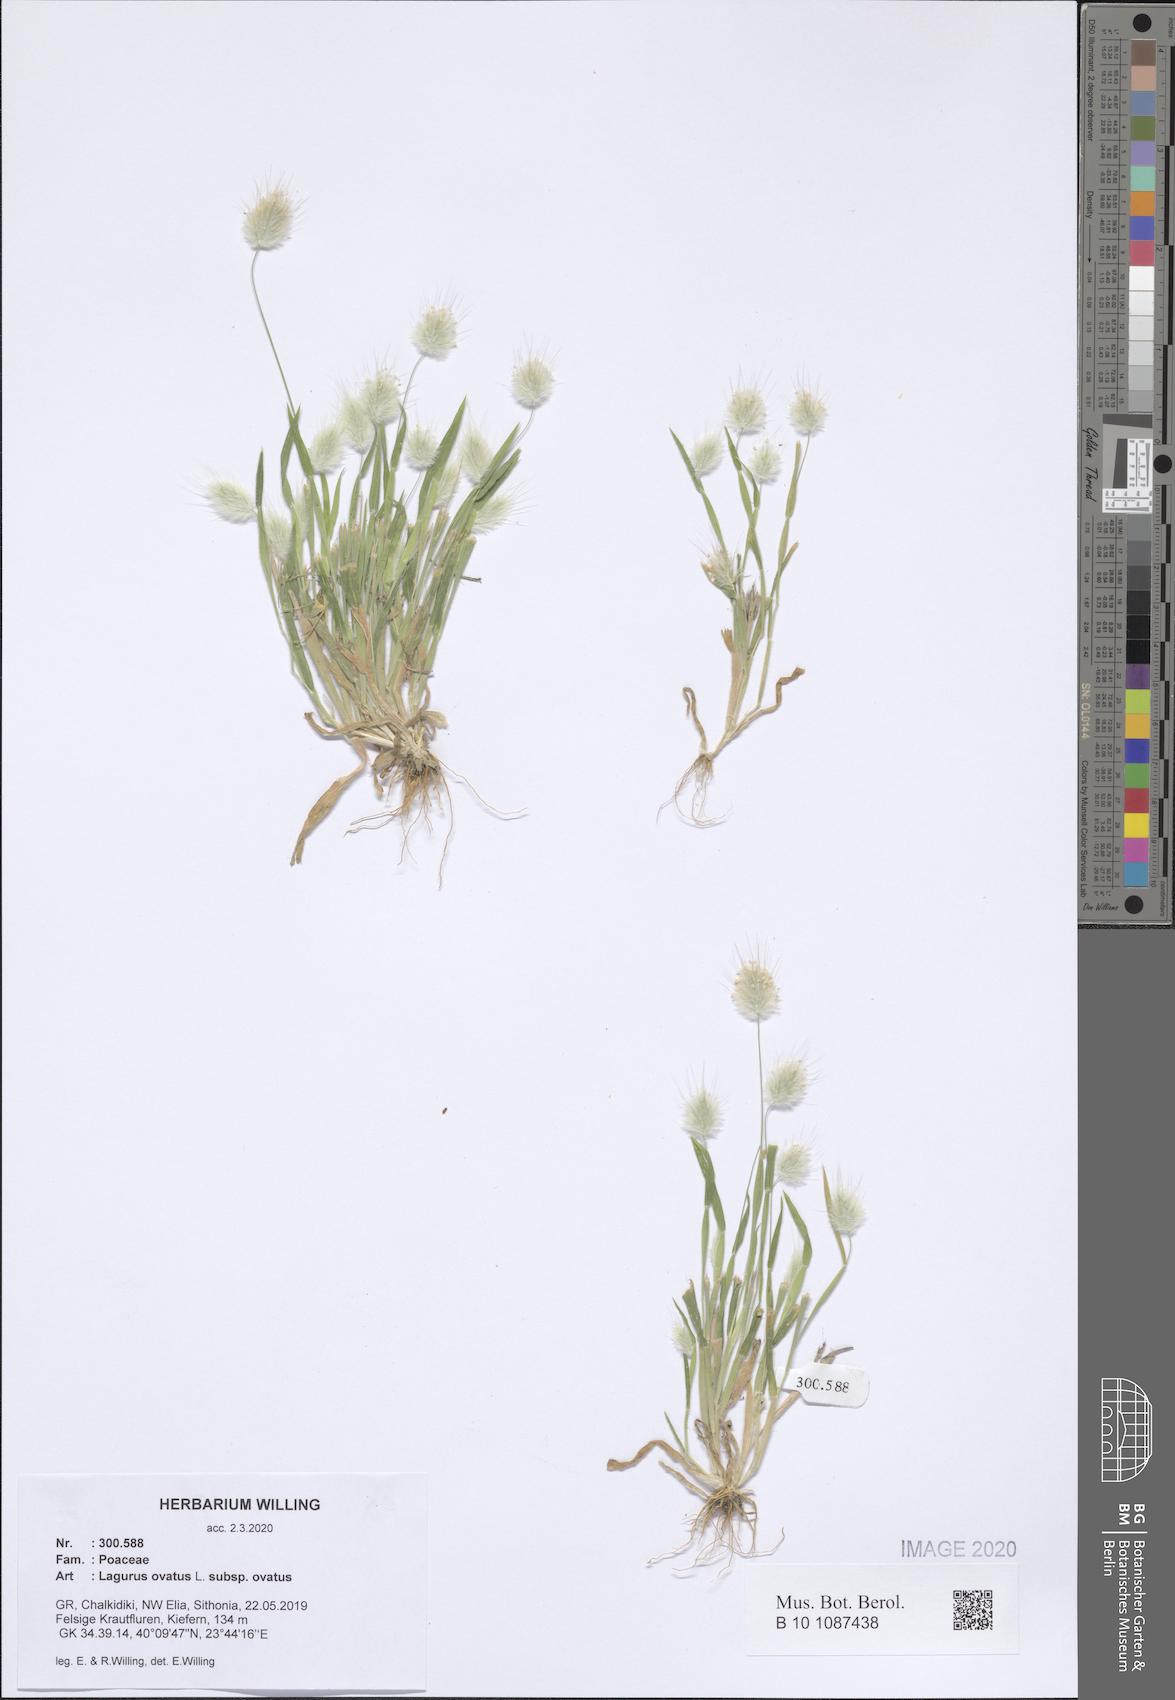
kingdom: Plantae
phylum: Tracheophyta
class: Liliopsida
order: Poales
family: Poaceae
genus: Lagurus
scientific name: Lagurus ovatus
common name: Hare's-tail
